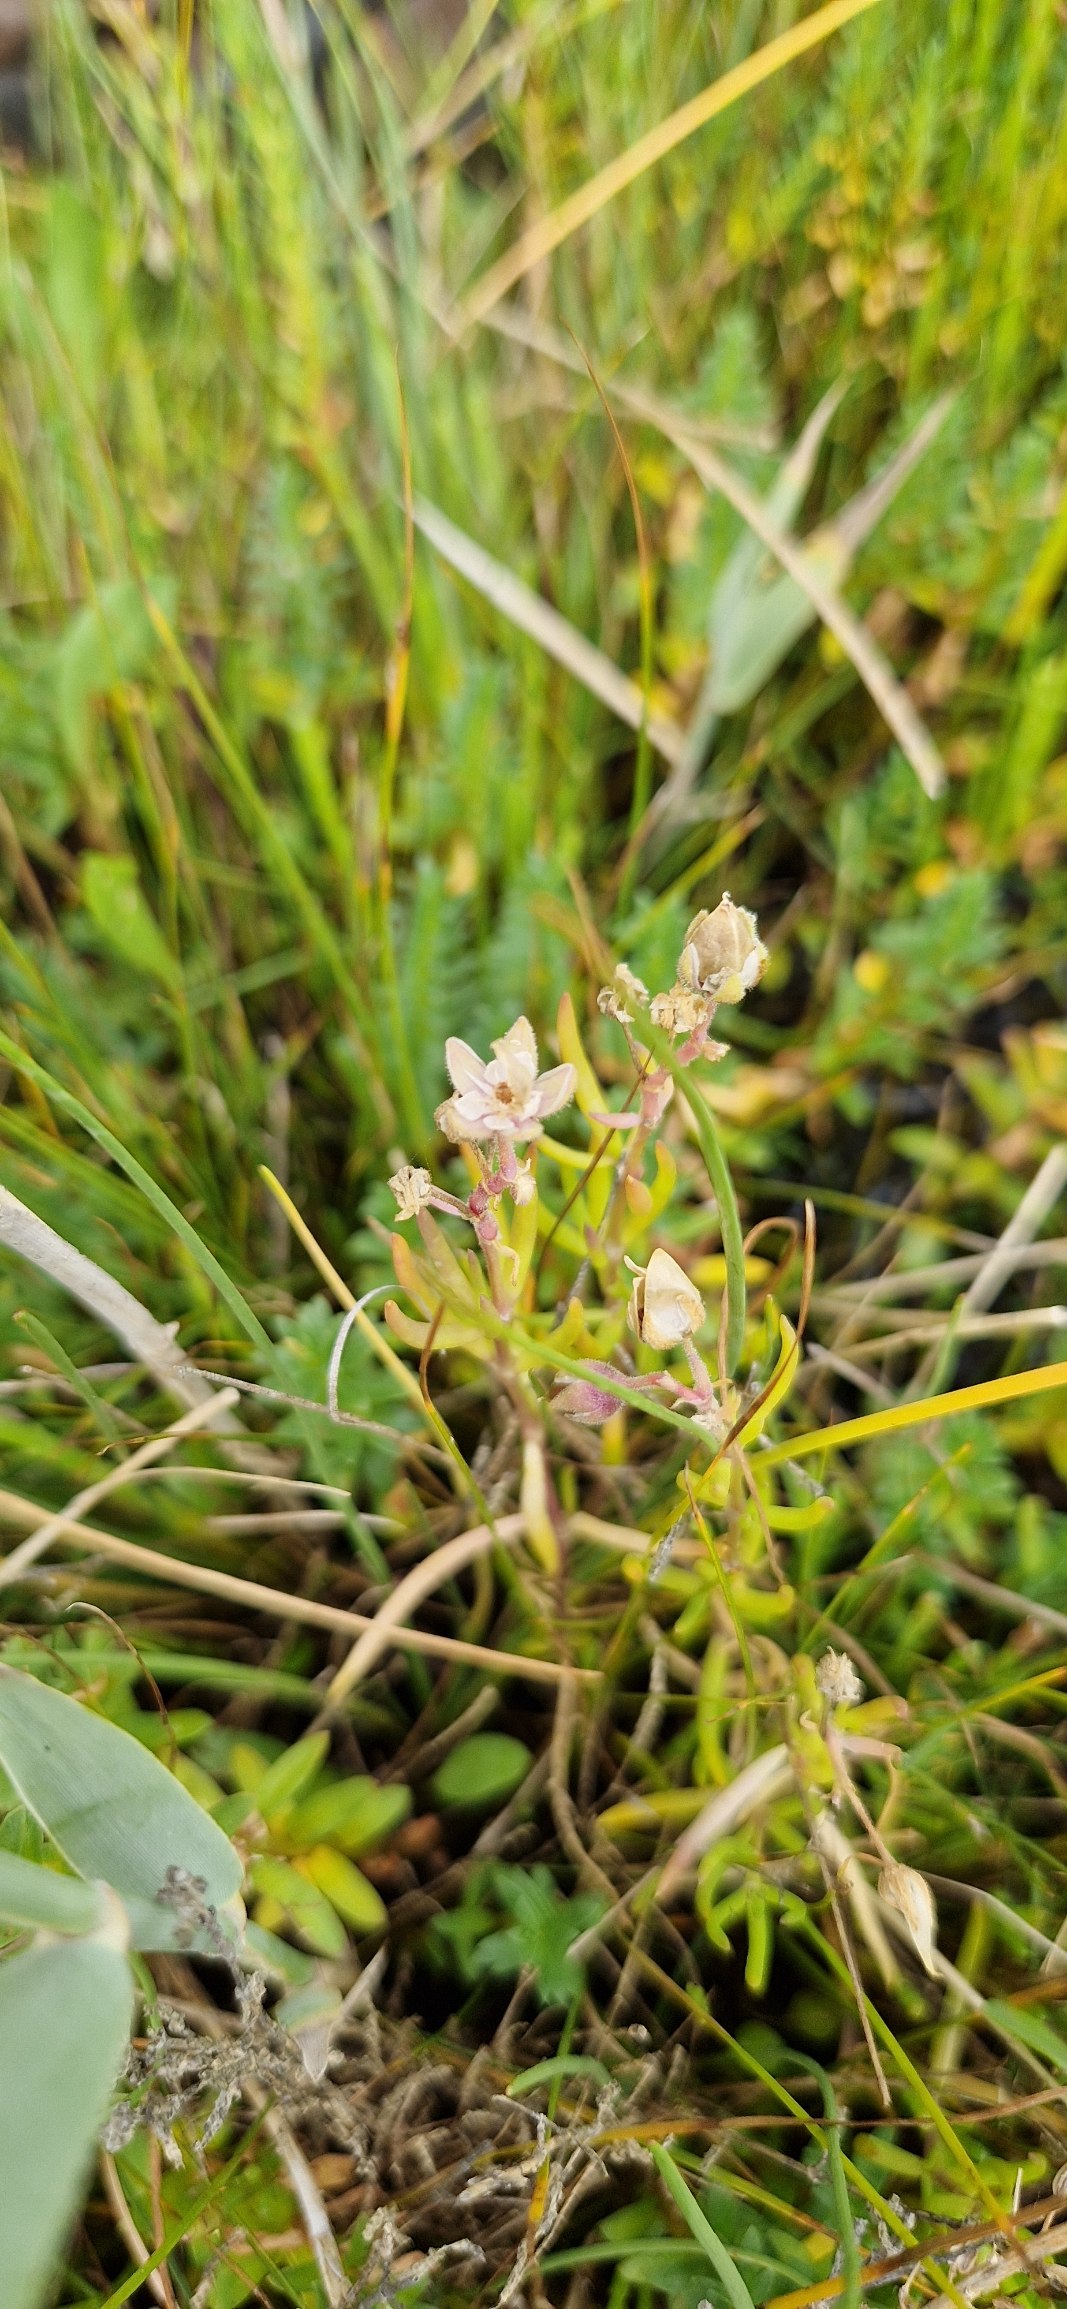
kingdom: Plantae
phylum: Tracheophyta
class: Magnoliopsida
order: Caryophyllales
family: Caryophyllaceae
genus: Spergularia
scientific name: Spergularia marina
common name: Kødet hindeknæ
